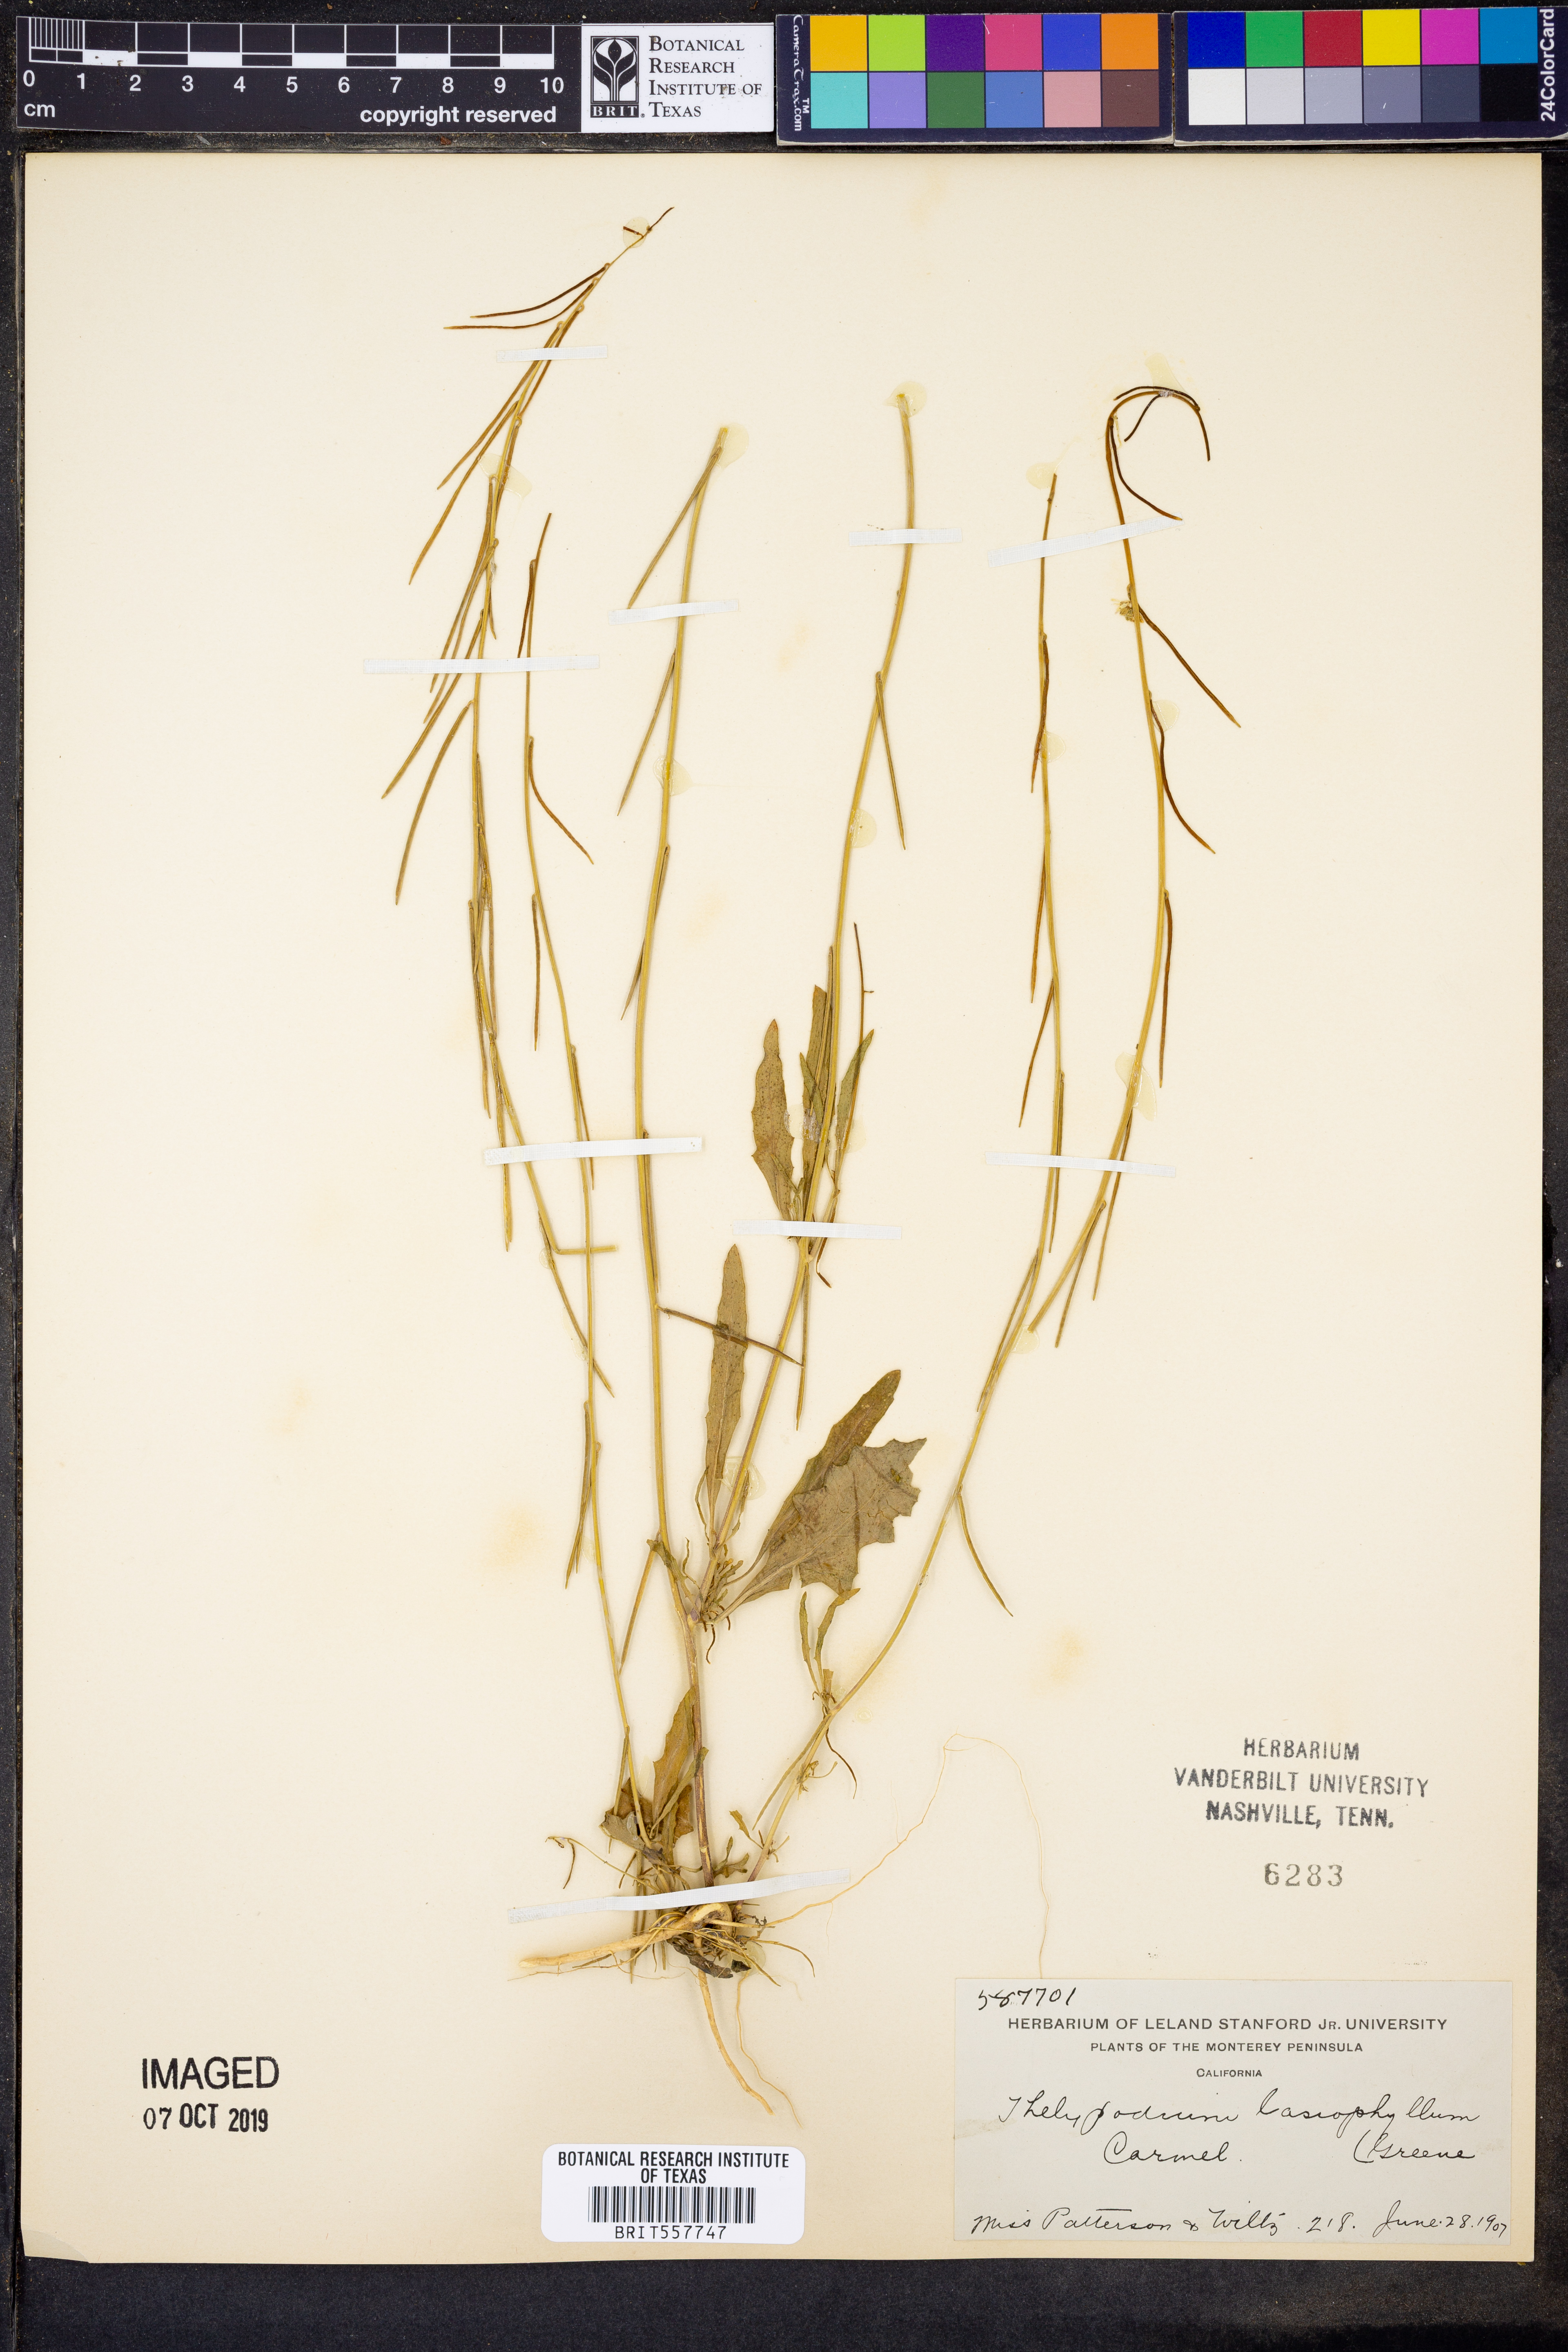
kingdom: Plantae
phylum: Tracheophyta
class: Magnoliopsida
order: Brassicales
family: Brassicaceae
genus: Streptanthus
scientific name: Streptanthus lasiophyllus
